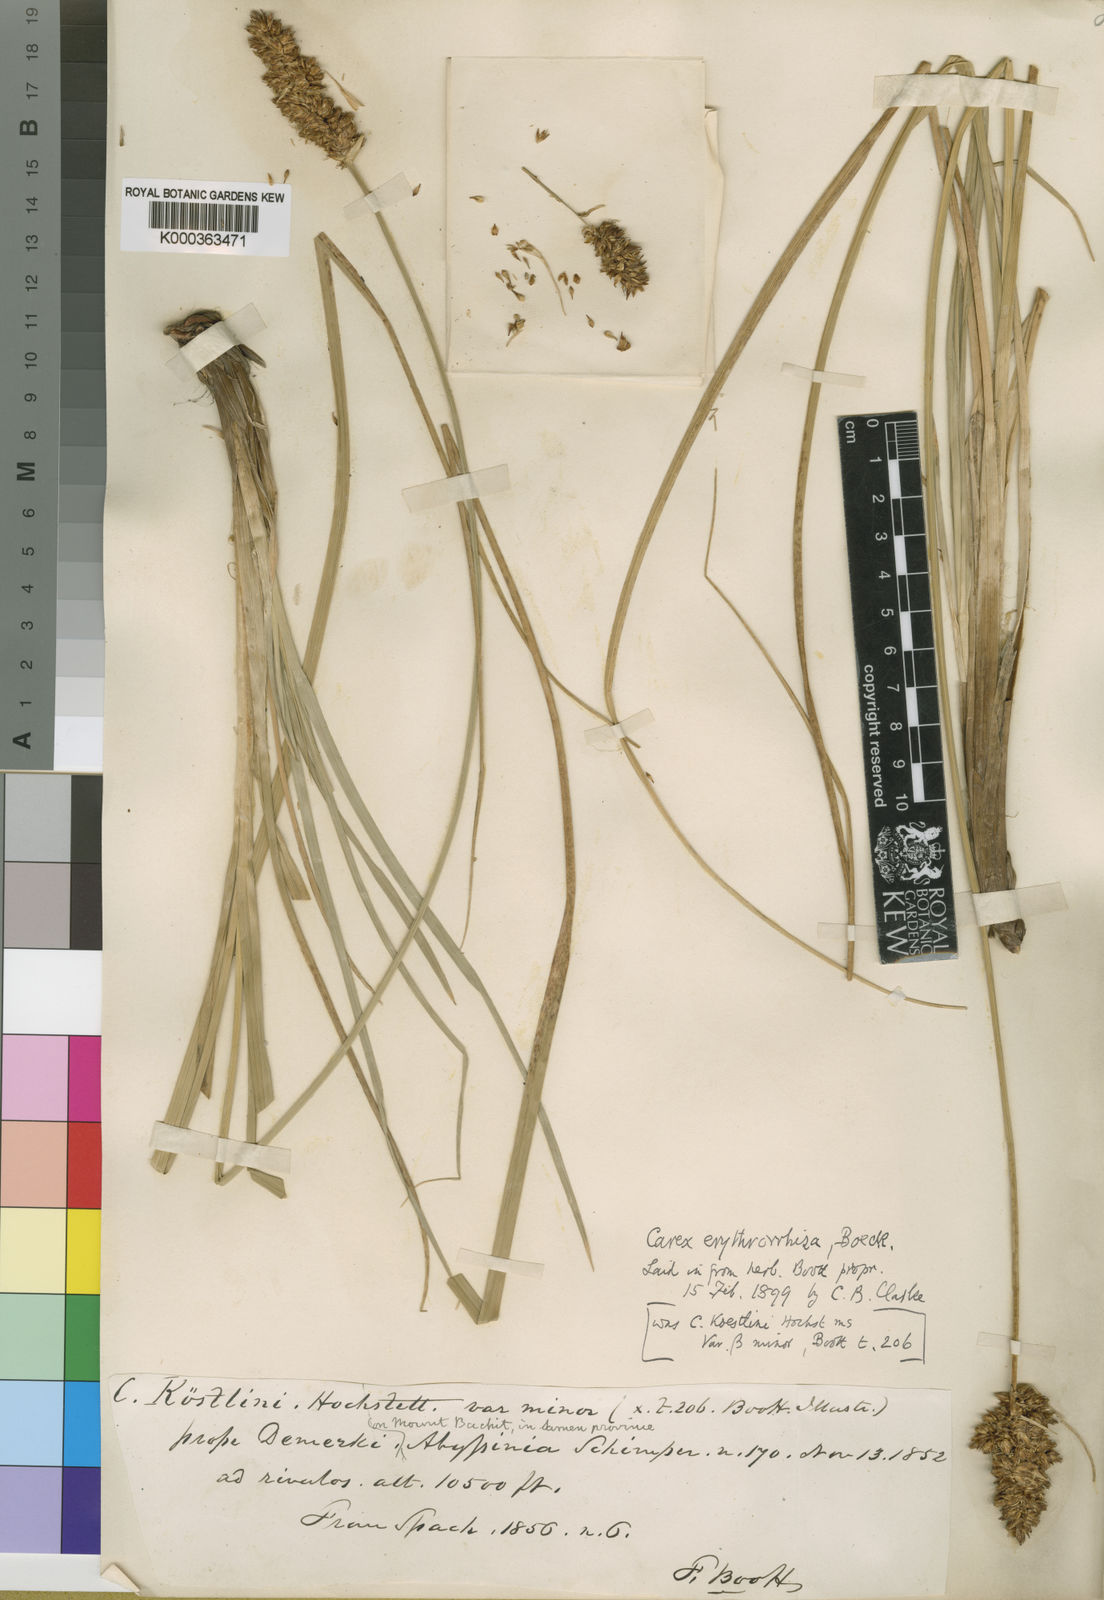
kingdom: Plantae
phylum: Tracheophyta
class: Liliopsida
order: Poales
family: Cyperaceae
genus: Carex
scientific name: Carex erythrorrhiza
